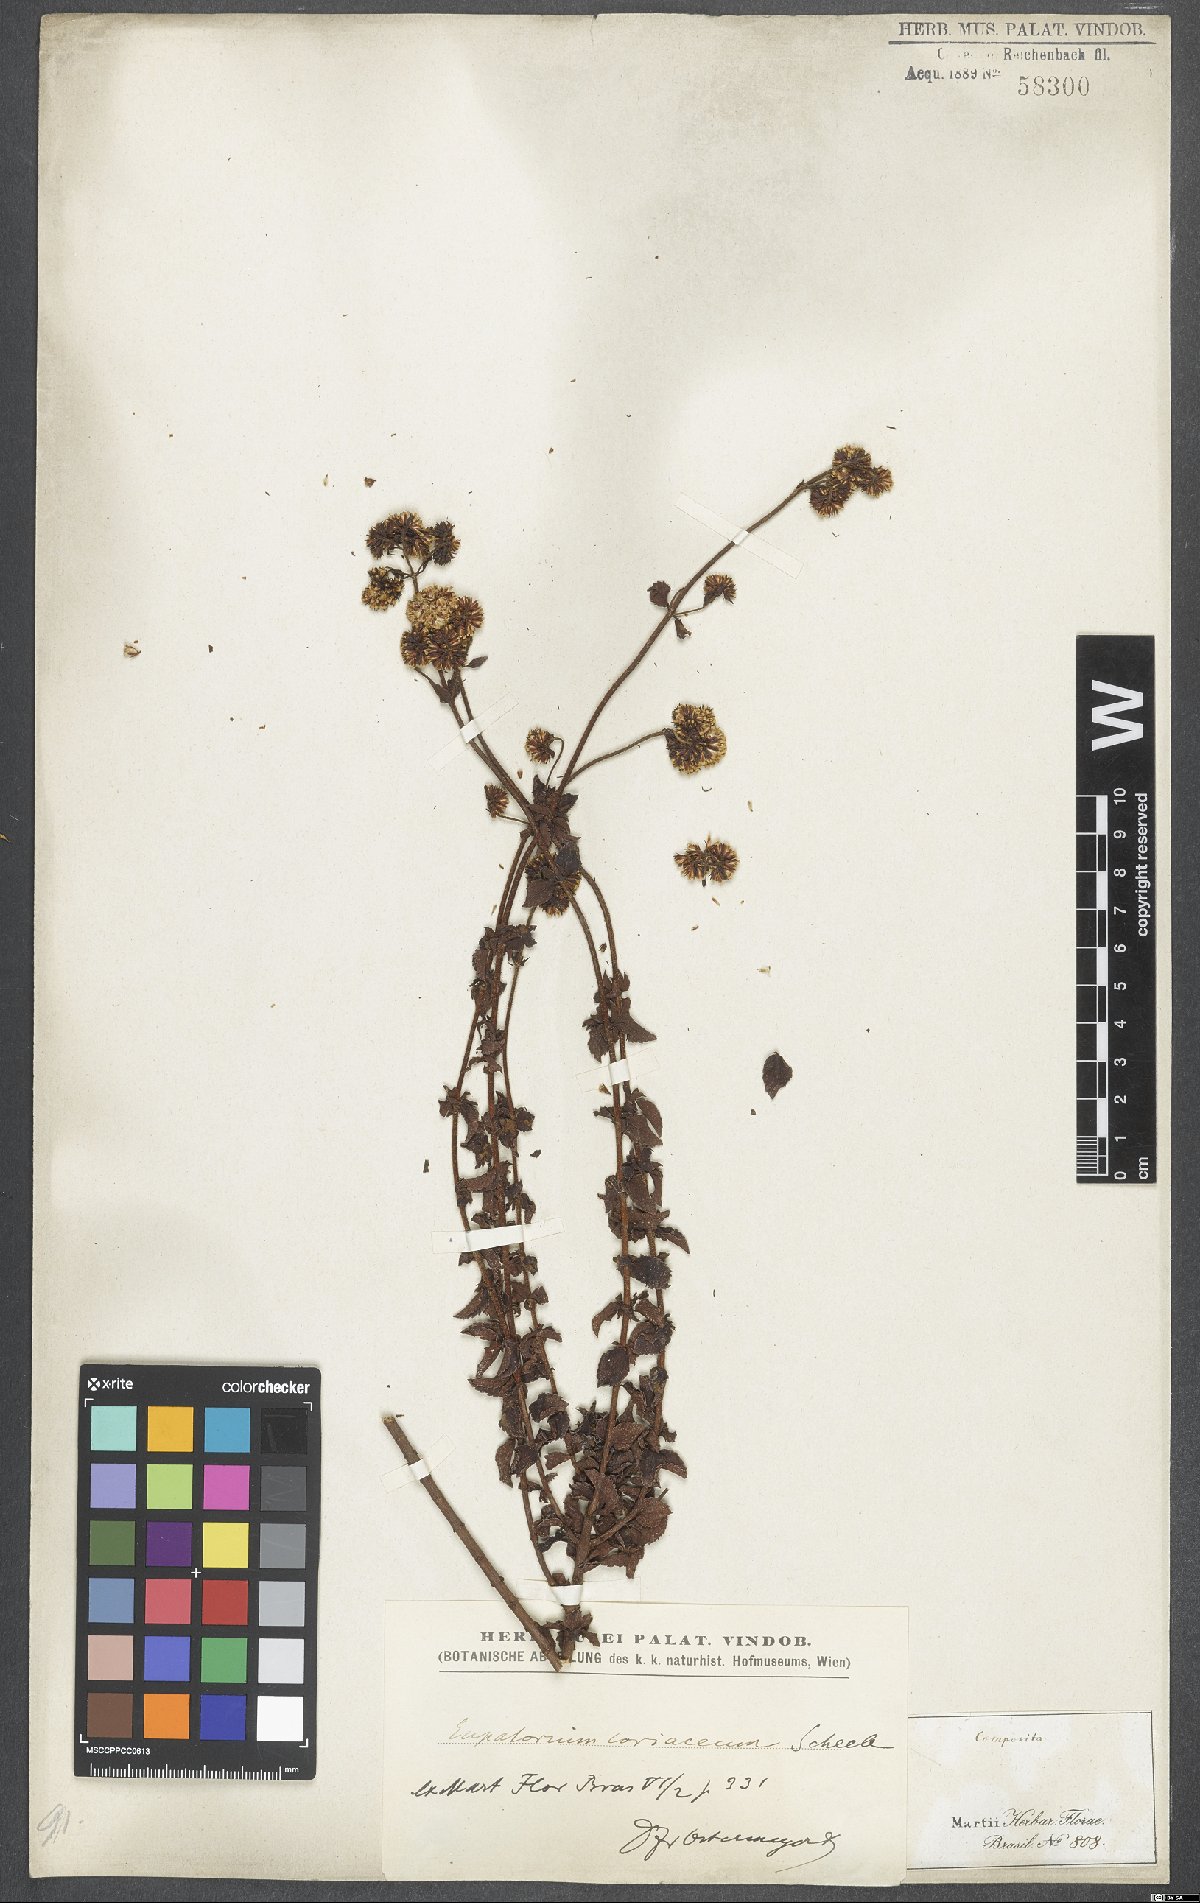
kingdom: Plantae
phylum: Tracheophyta
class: Magnoliopsida
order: Asterales
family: Asteraceae
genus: Grazielia
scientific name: Grazielia coriacea
